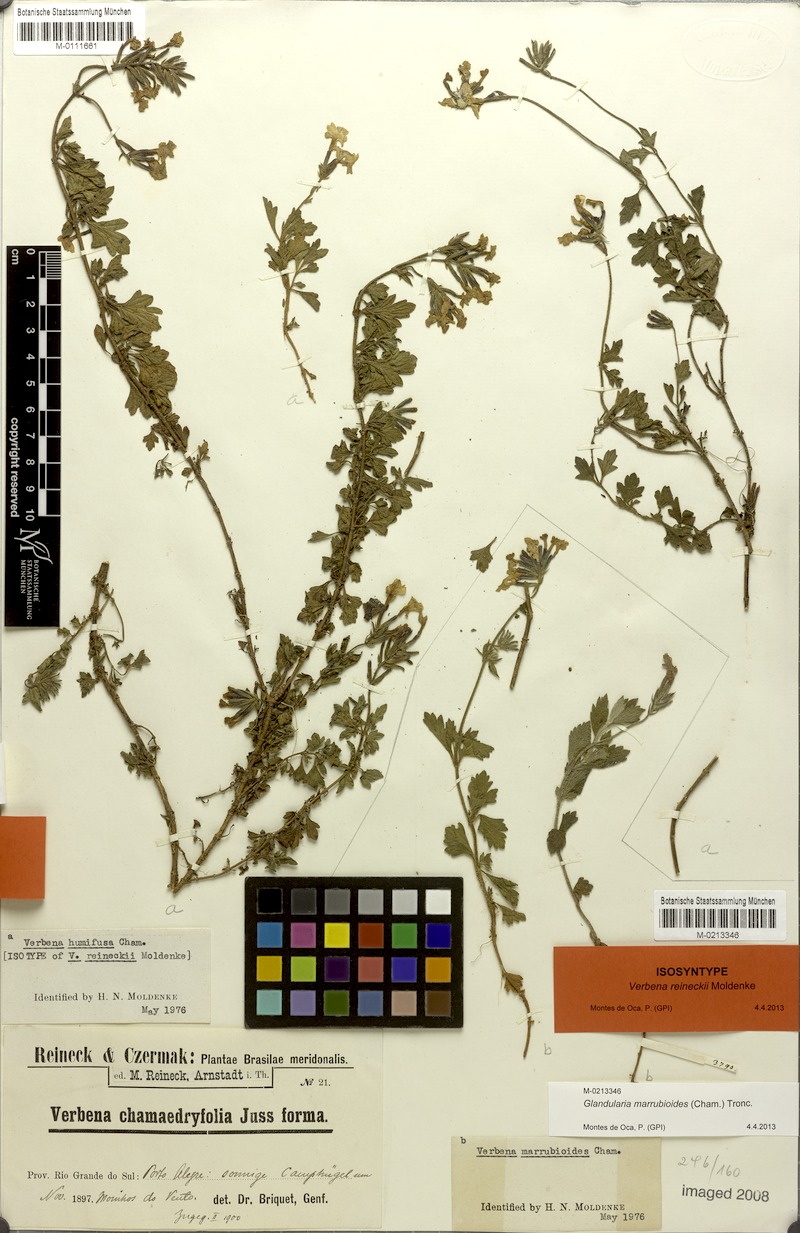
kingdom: Plantae
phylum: Tracheophyta
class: Magnoliopsida
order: Lamiales
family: Verbenaceae
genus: Verbena
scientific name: Verbena humifusa
